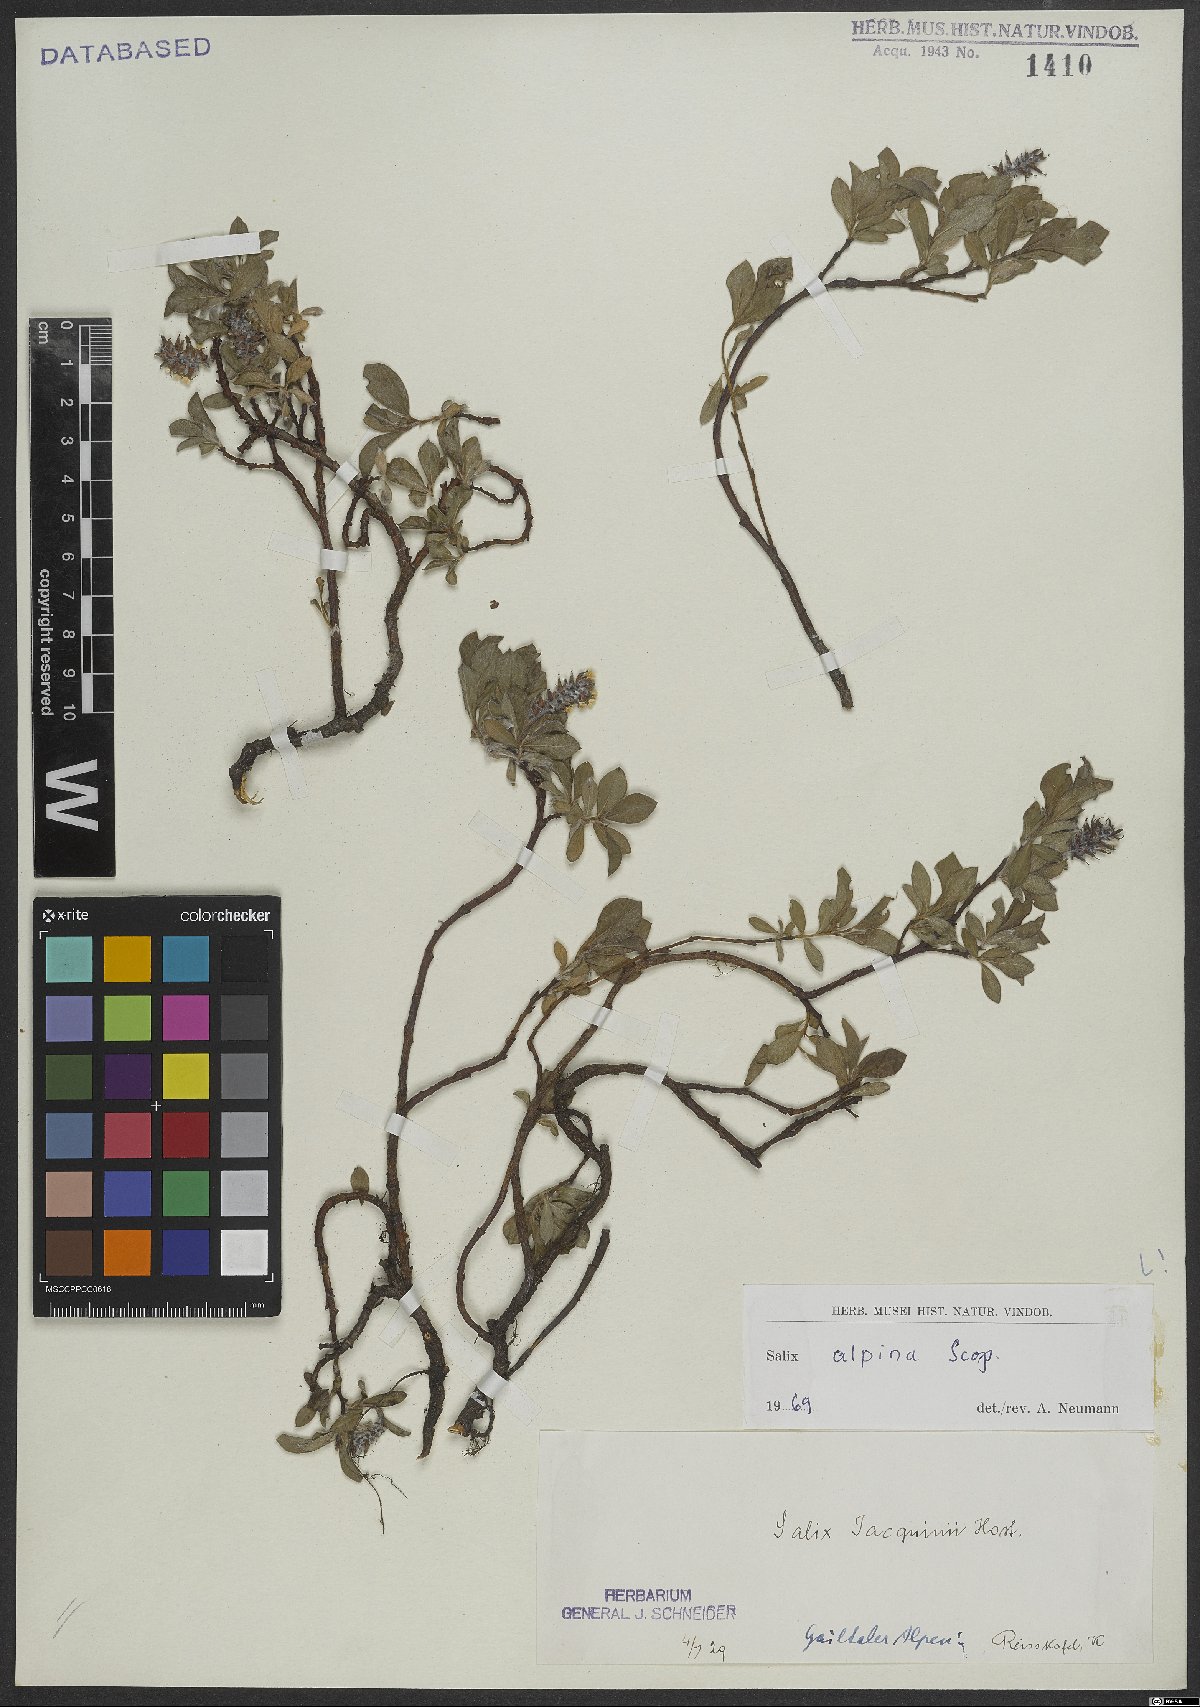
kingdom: Plantae
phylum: Tracheophyta
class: Magnoliopsida
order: Malpighiales
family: Salicaceae
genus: Salix
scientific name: Salix alpina
